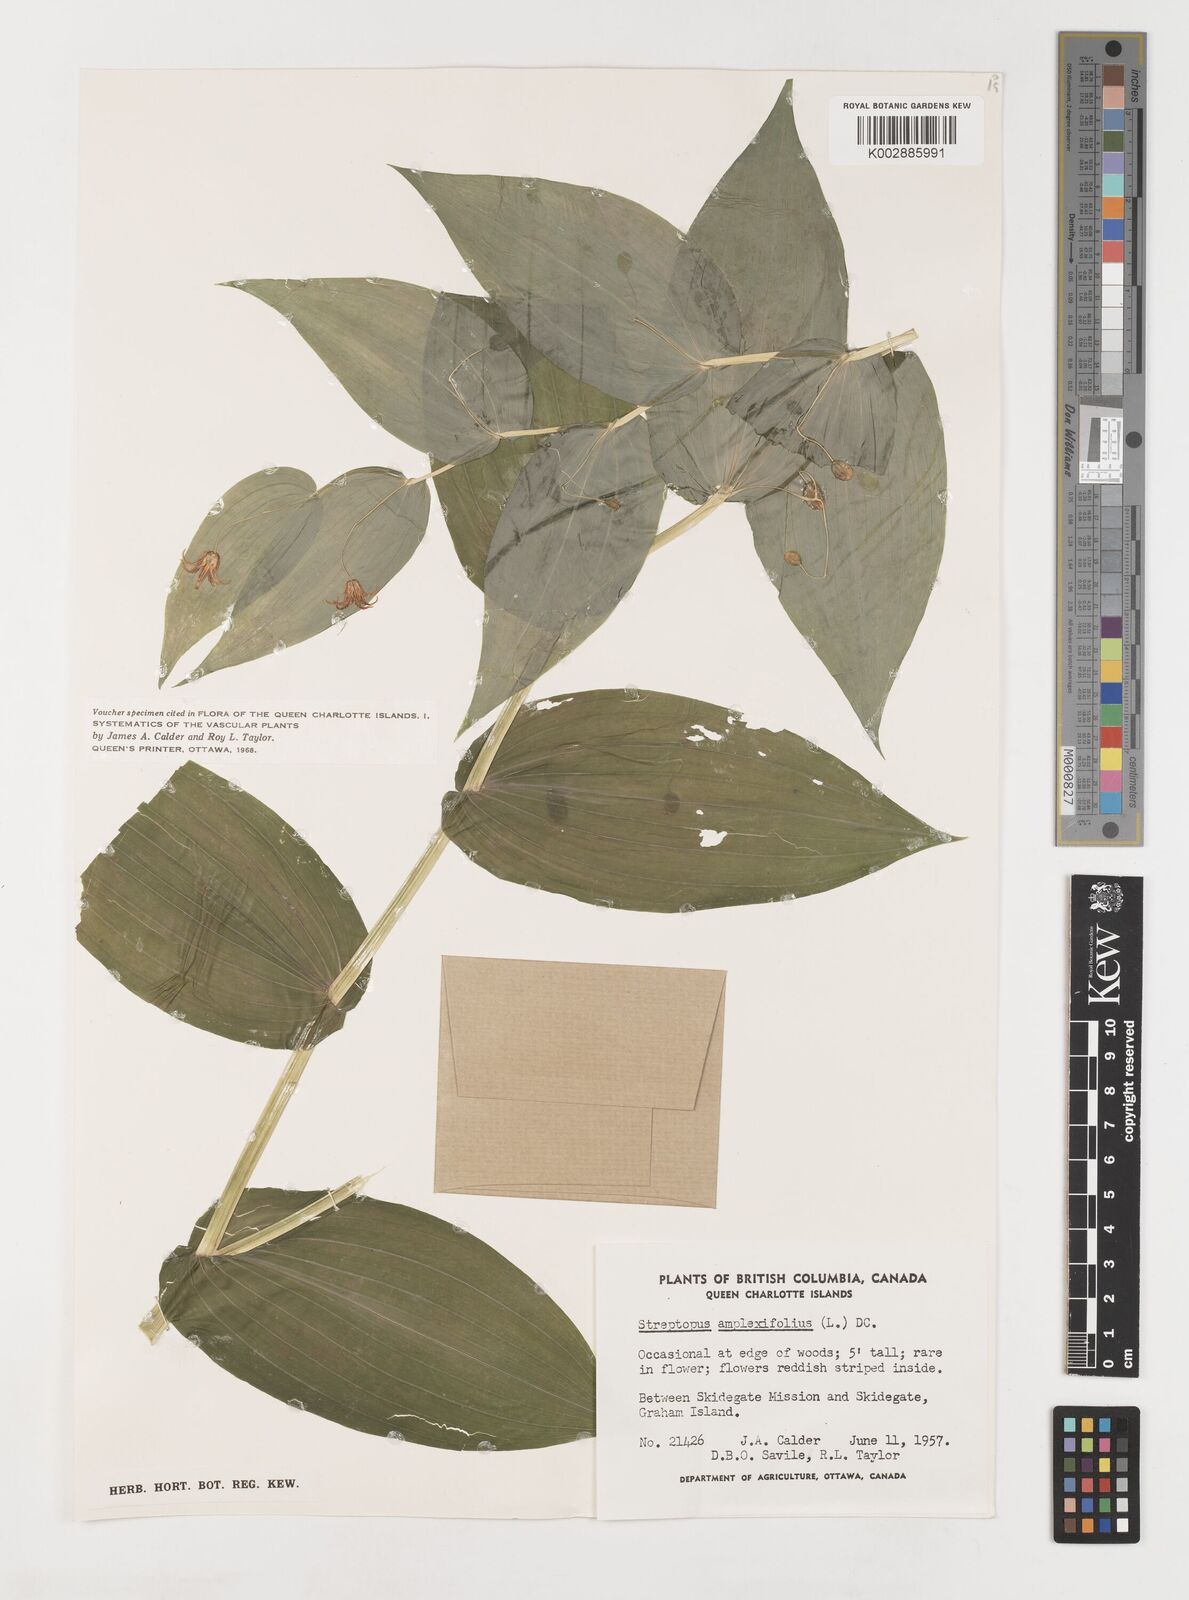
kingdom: Plantae
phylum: Tracheophyta
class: Liliopsida
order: Liliales
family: Liliaceae
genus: Streptopus
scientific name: Streptopus amplexifolius
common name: Clasp twisted stalk
